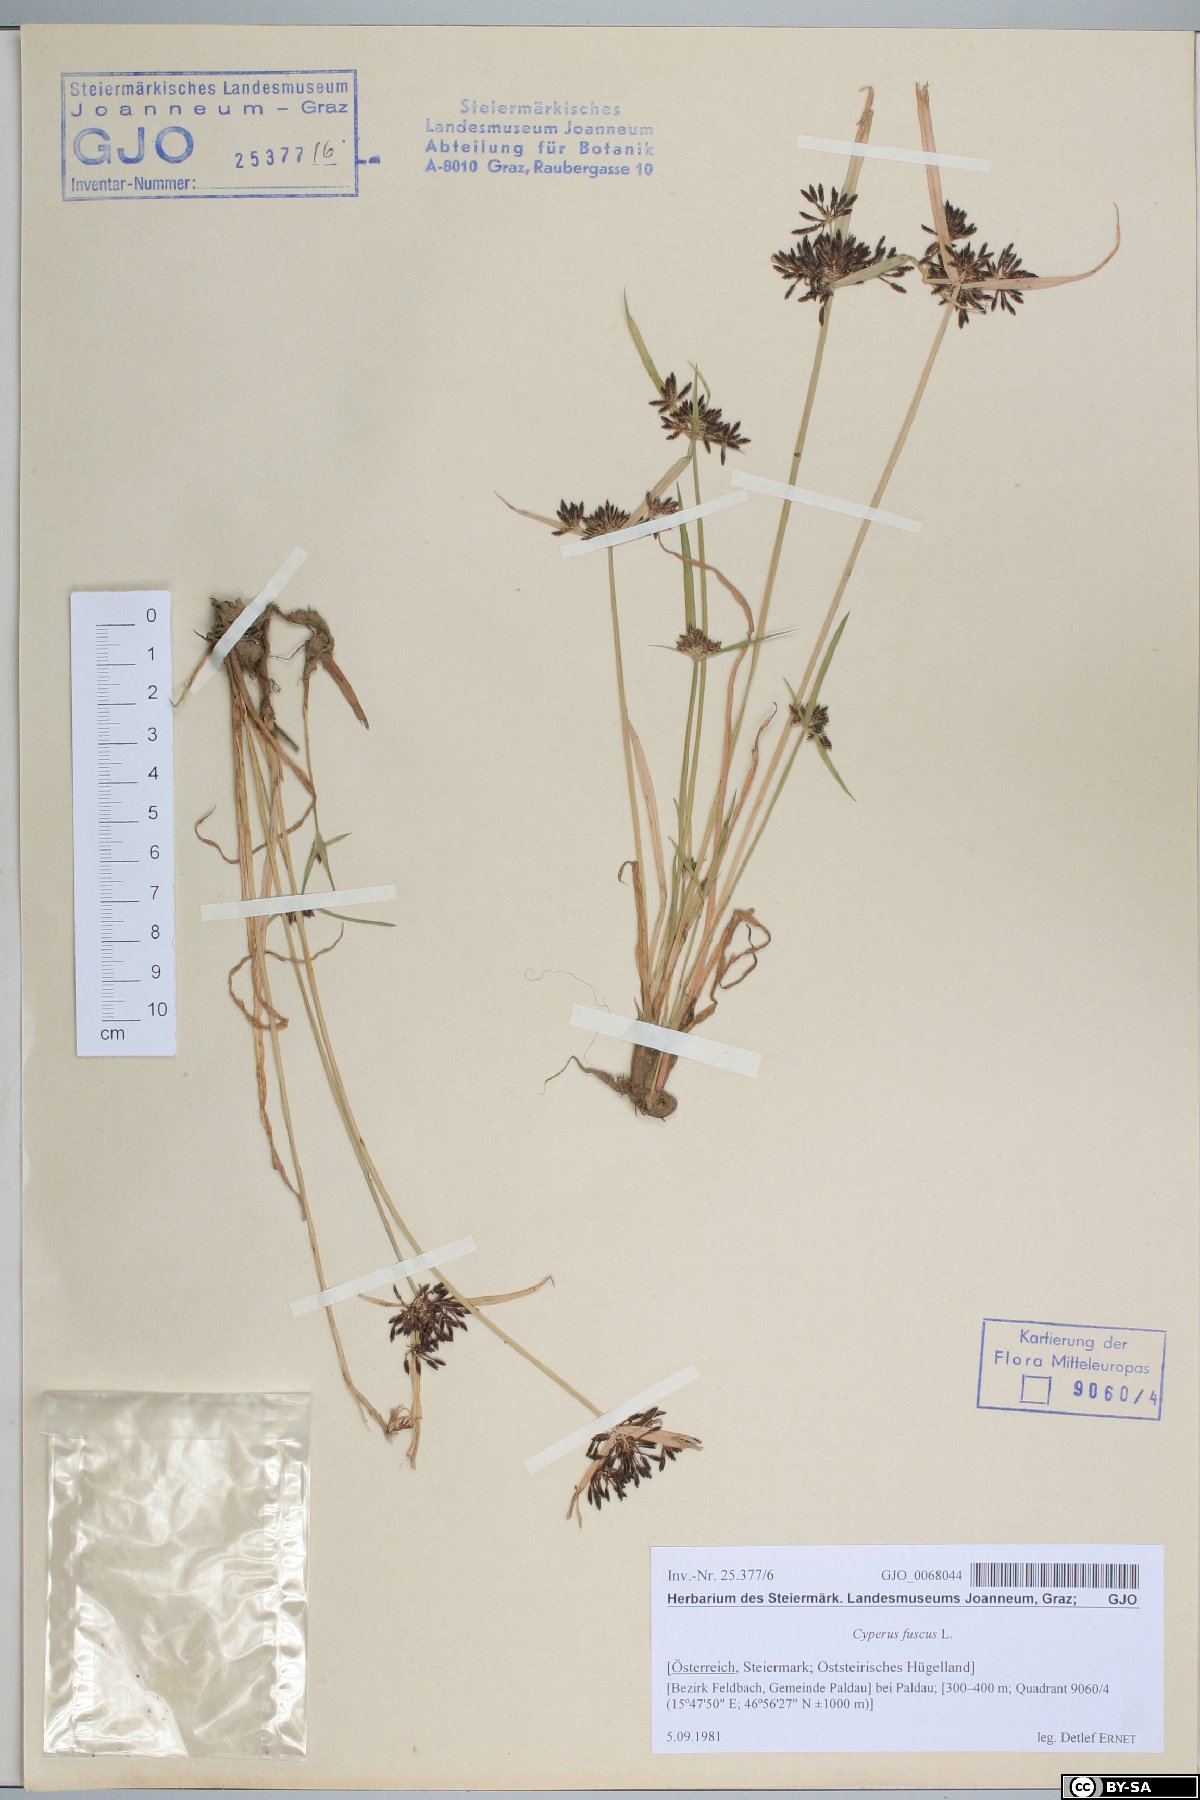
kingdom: Plantae
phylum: Tracheophyta
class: Liliopsida
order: Poales
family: Cyperaceae
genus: Cyperus
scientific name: Cyperus fuscus
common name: Brown galingale
